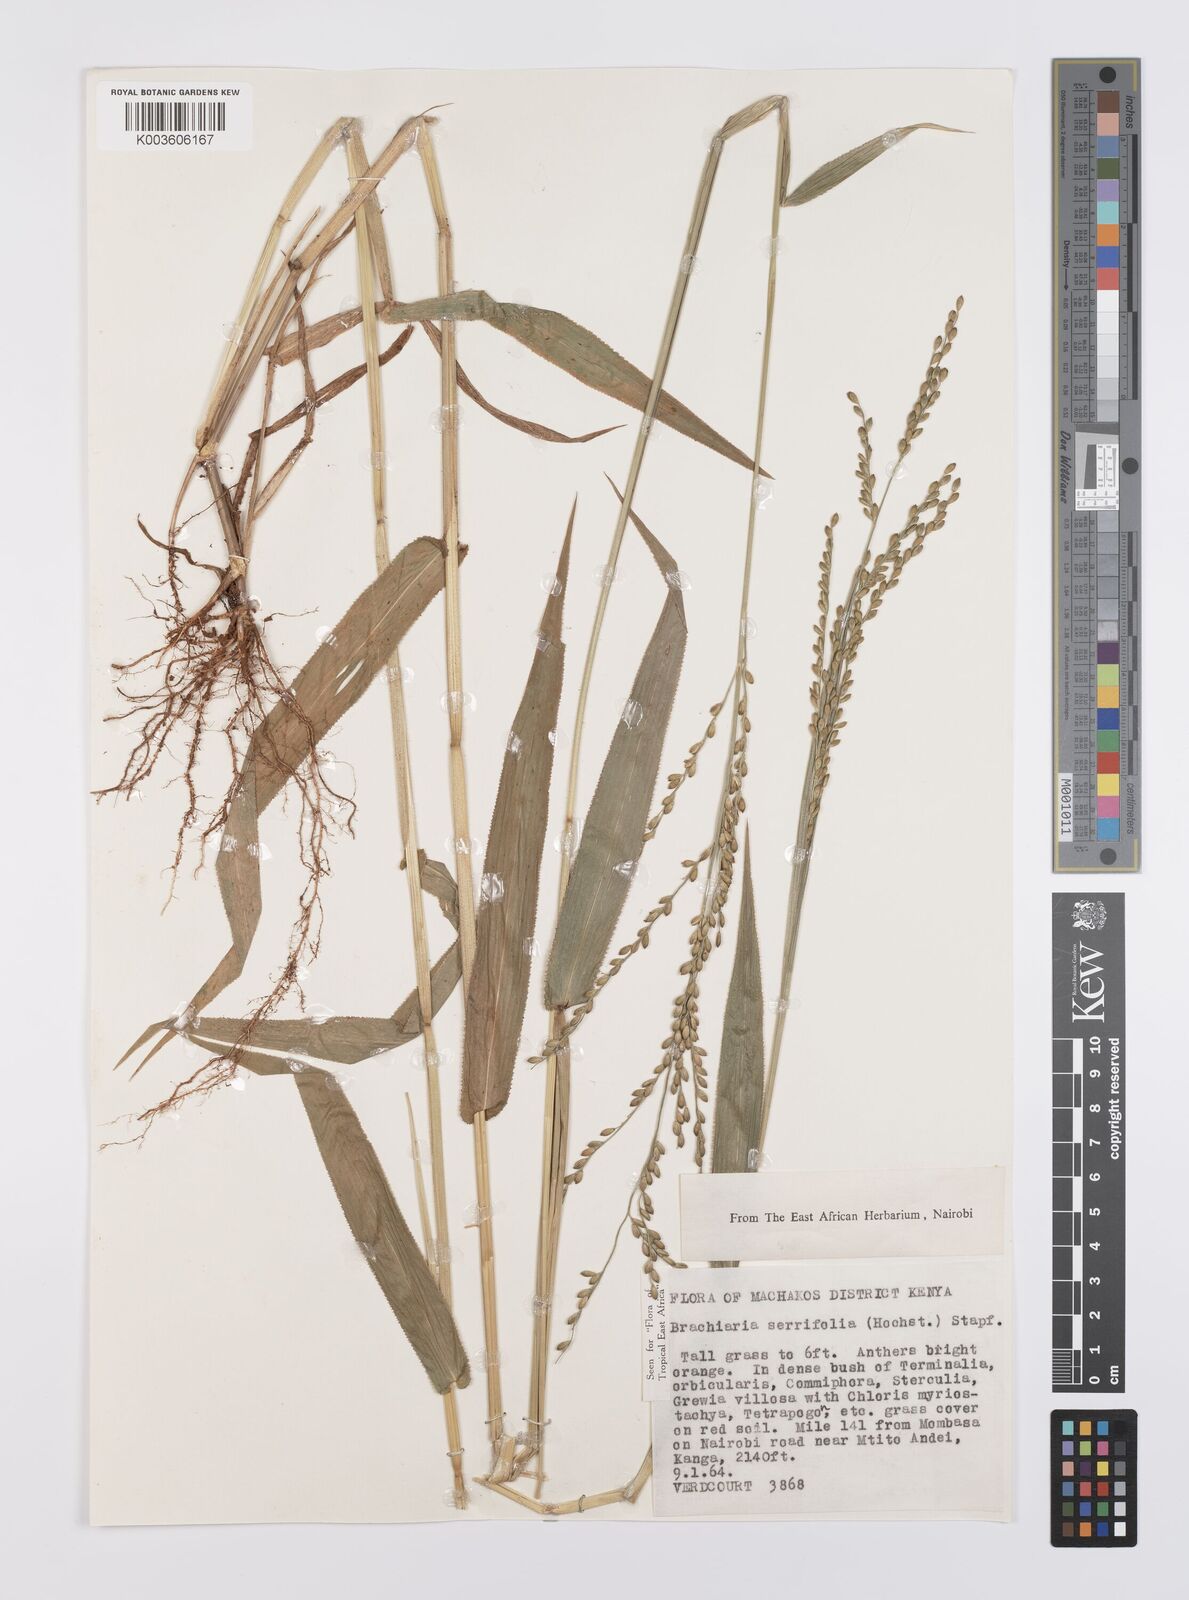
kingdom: Plantae
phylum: Tracheophyta
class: Liliopsida
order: Poales
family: Poaceae
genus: Urochloa
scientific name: Urochloa serrifolia
